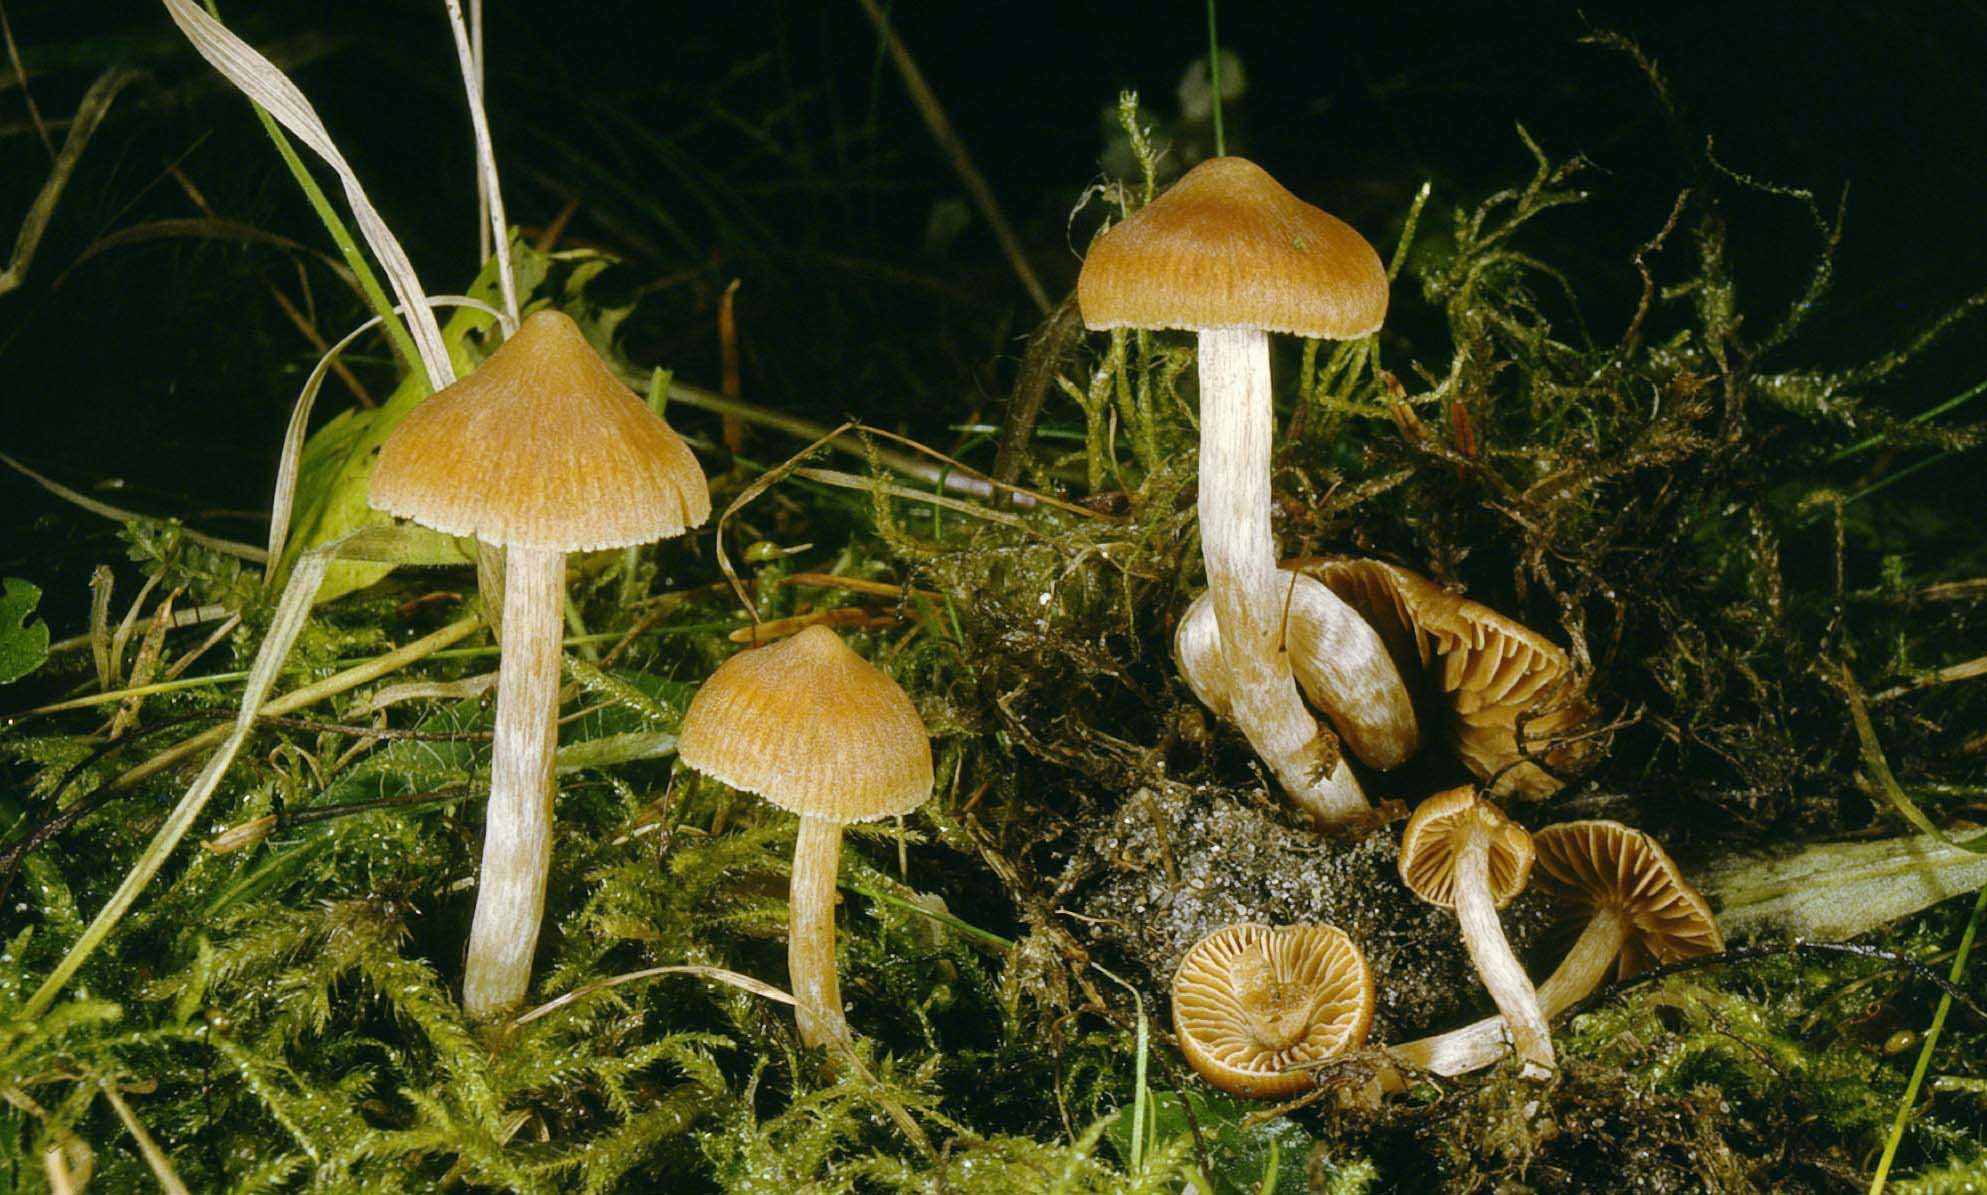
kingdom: Fungi
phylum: Basidiomycota
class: Agaricomycetes
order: Agaricales
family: Cortinariaceae
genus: Cortinarius
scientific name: Cortinarius acutus
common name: spids slørhat
